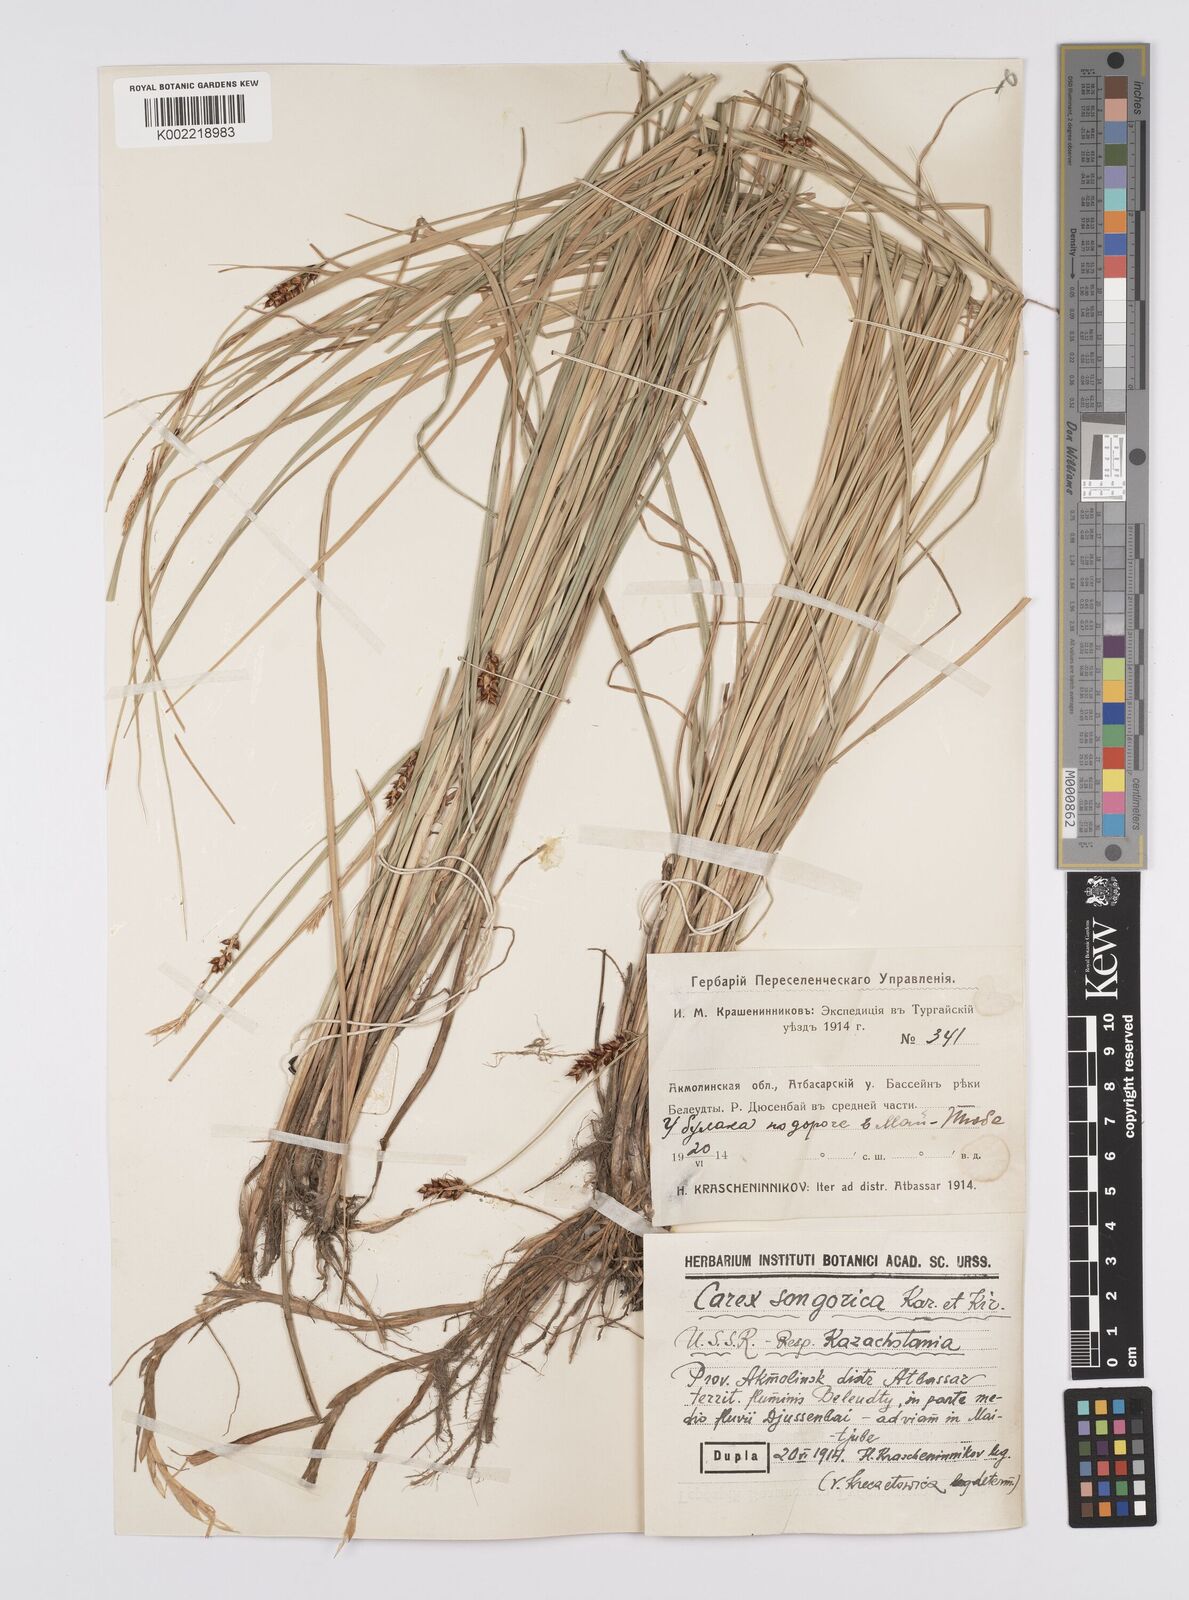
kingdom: Plantae
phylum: Tracheophyta
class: Liliopsida
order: Poales
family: Cyperaceae
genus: Carex
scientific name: Carex heterostachya
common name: Different-spike sedge
